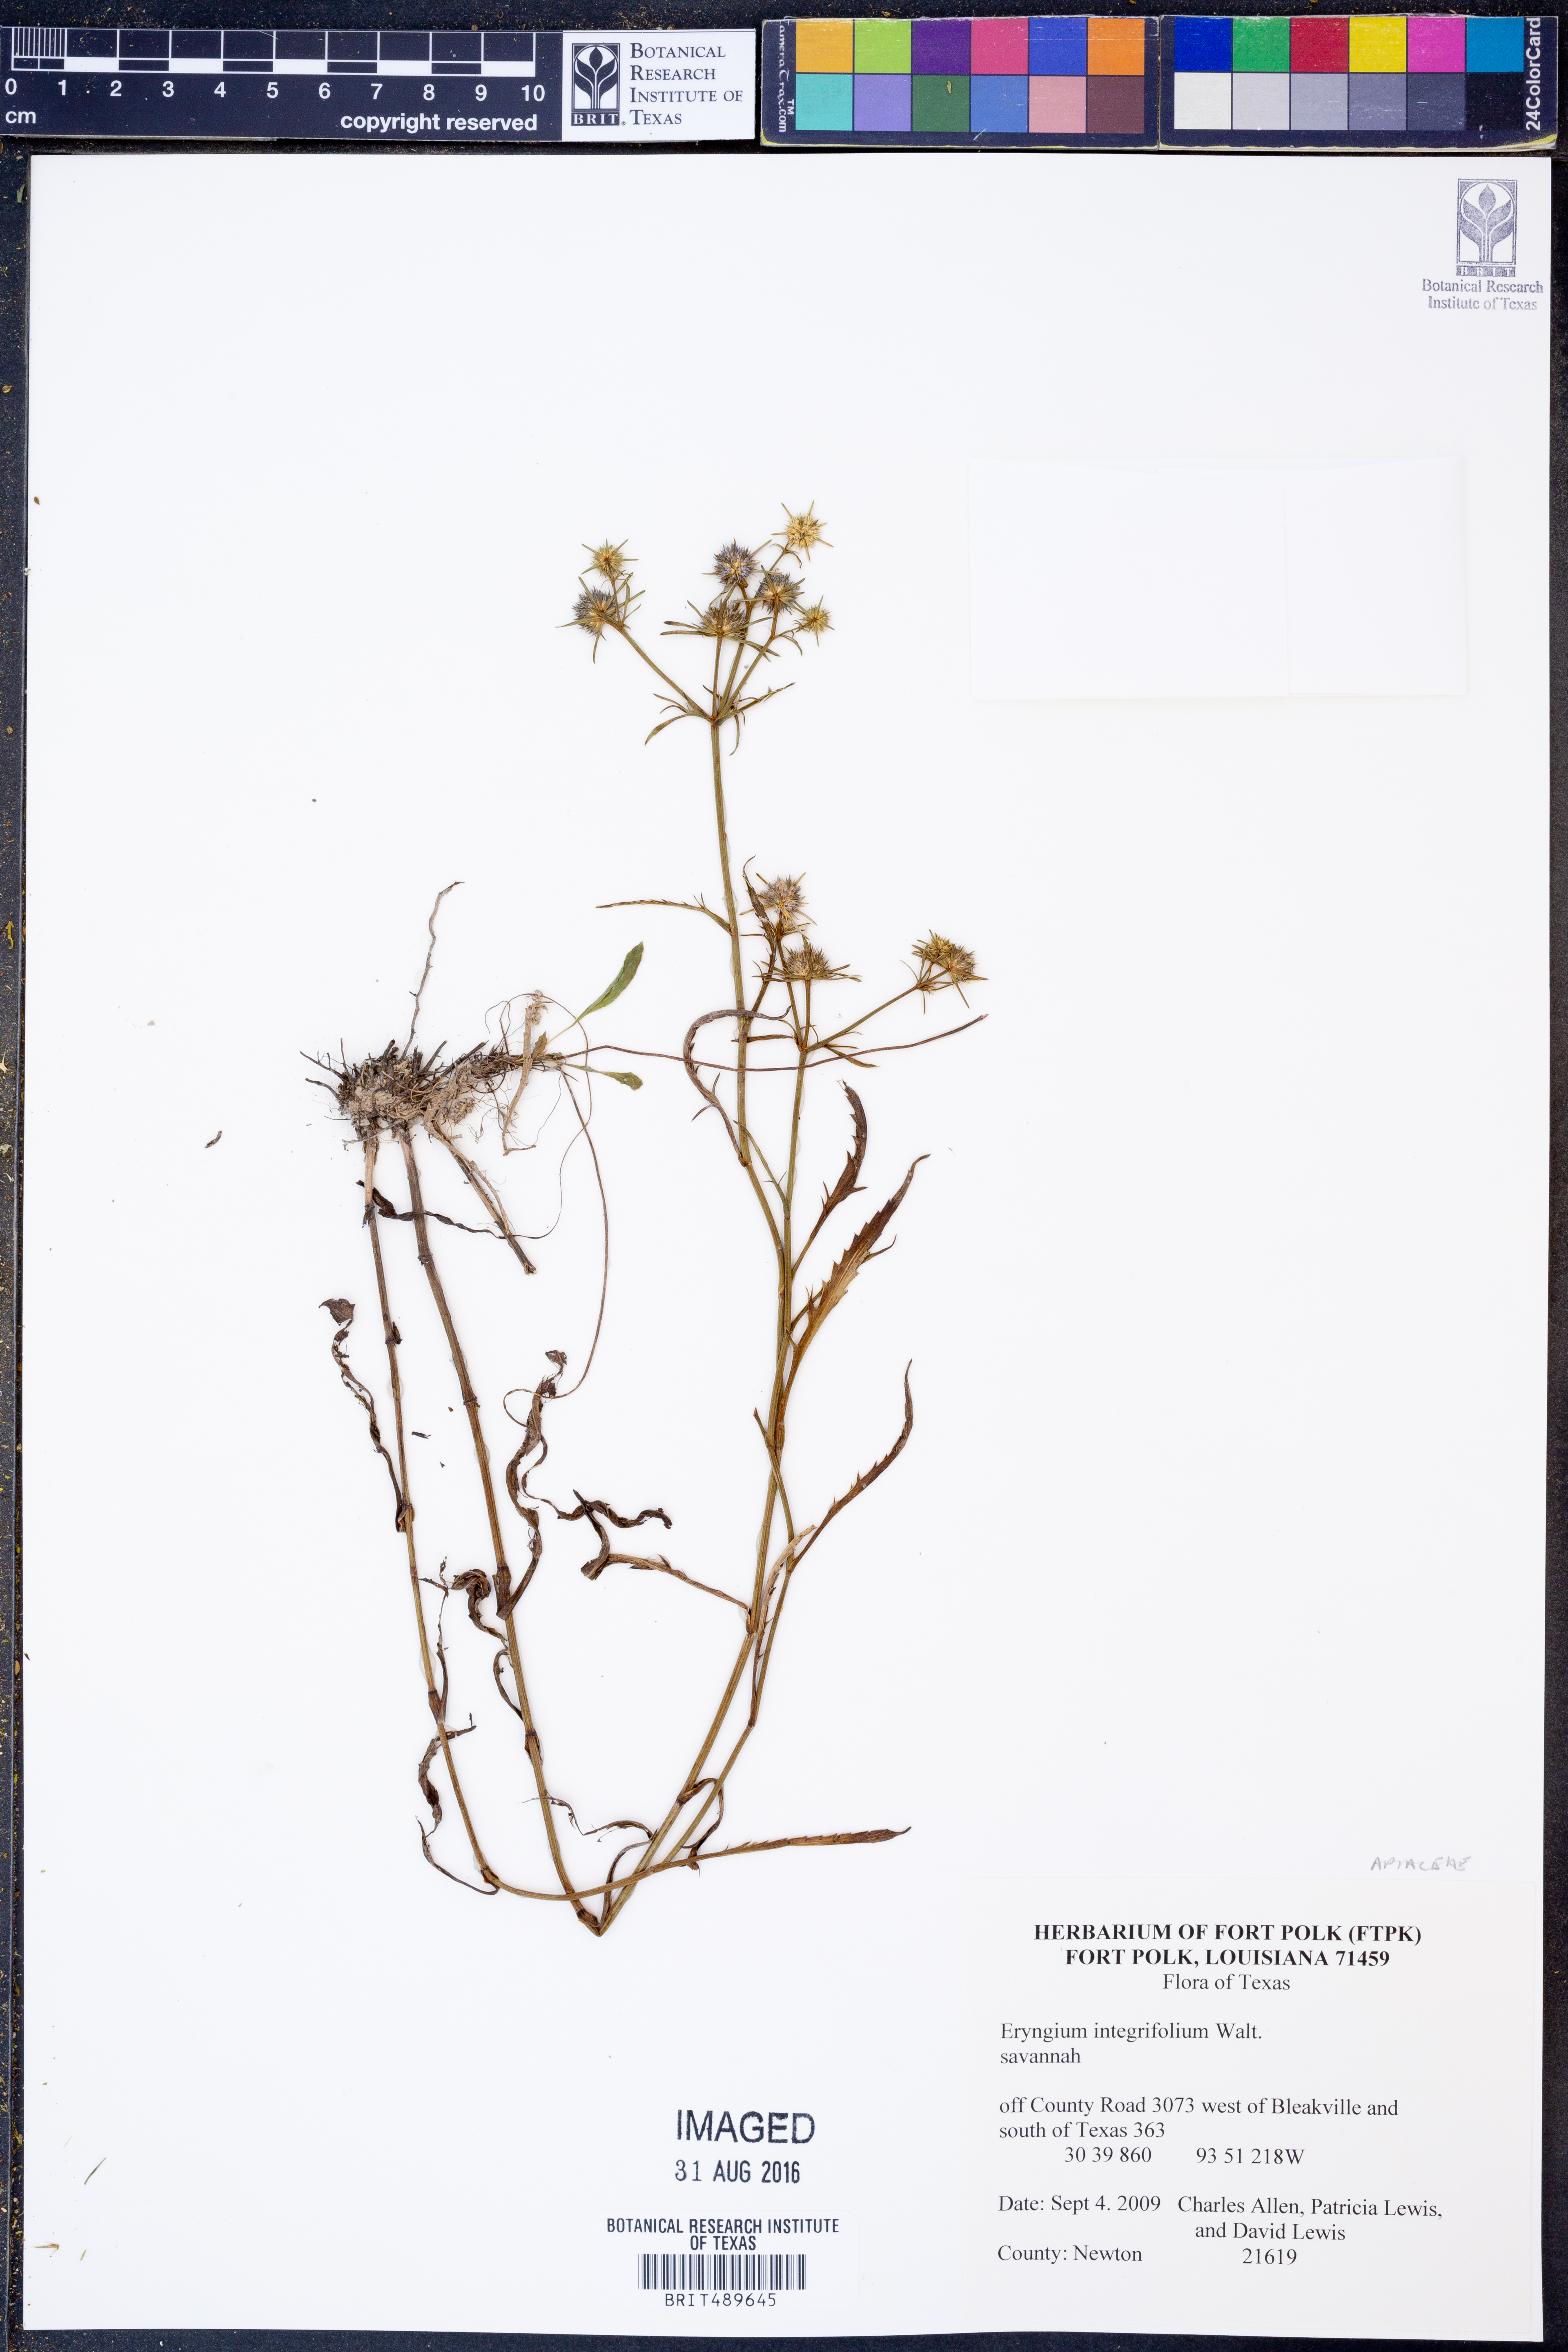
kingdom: Plantae
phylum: Tracheophyta
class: Magnoliopsida
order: Apiales
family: Apiaceae
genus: Eryngium
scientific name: Eryngium integrifolium
